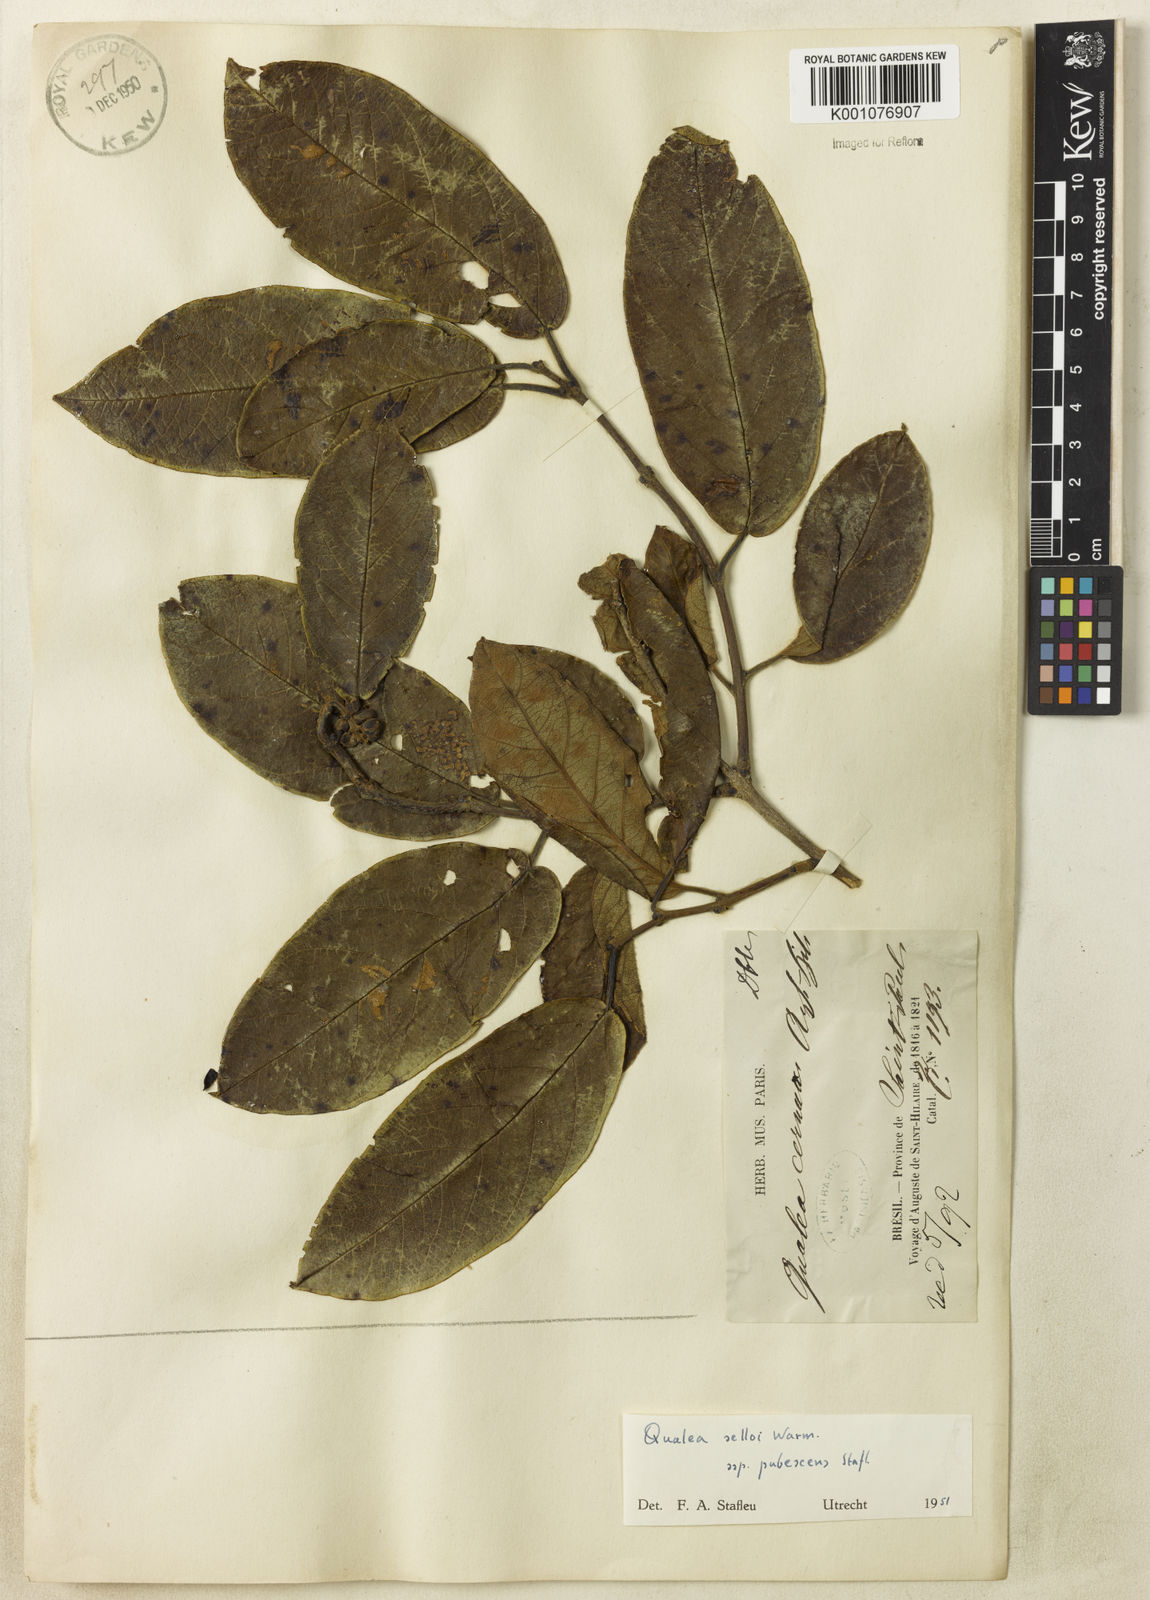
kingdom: Plantae
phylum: Tracheophyta
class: Magnoliopsida
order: Myrtales
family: Vochysiaceae
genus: Qualea
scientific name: Qualea selloi
